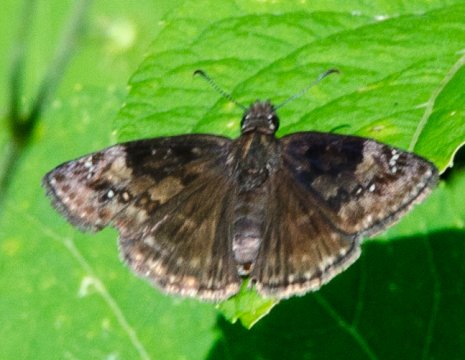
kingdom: Animalia
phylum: Arthropoda
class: Insecta
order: Lepidoptera
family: Hesperiidae
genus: Gesta
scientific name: Gesta
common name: Wild Indigo Duskywing
